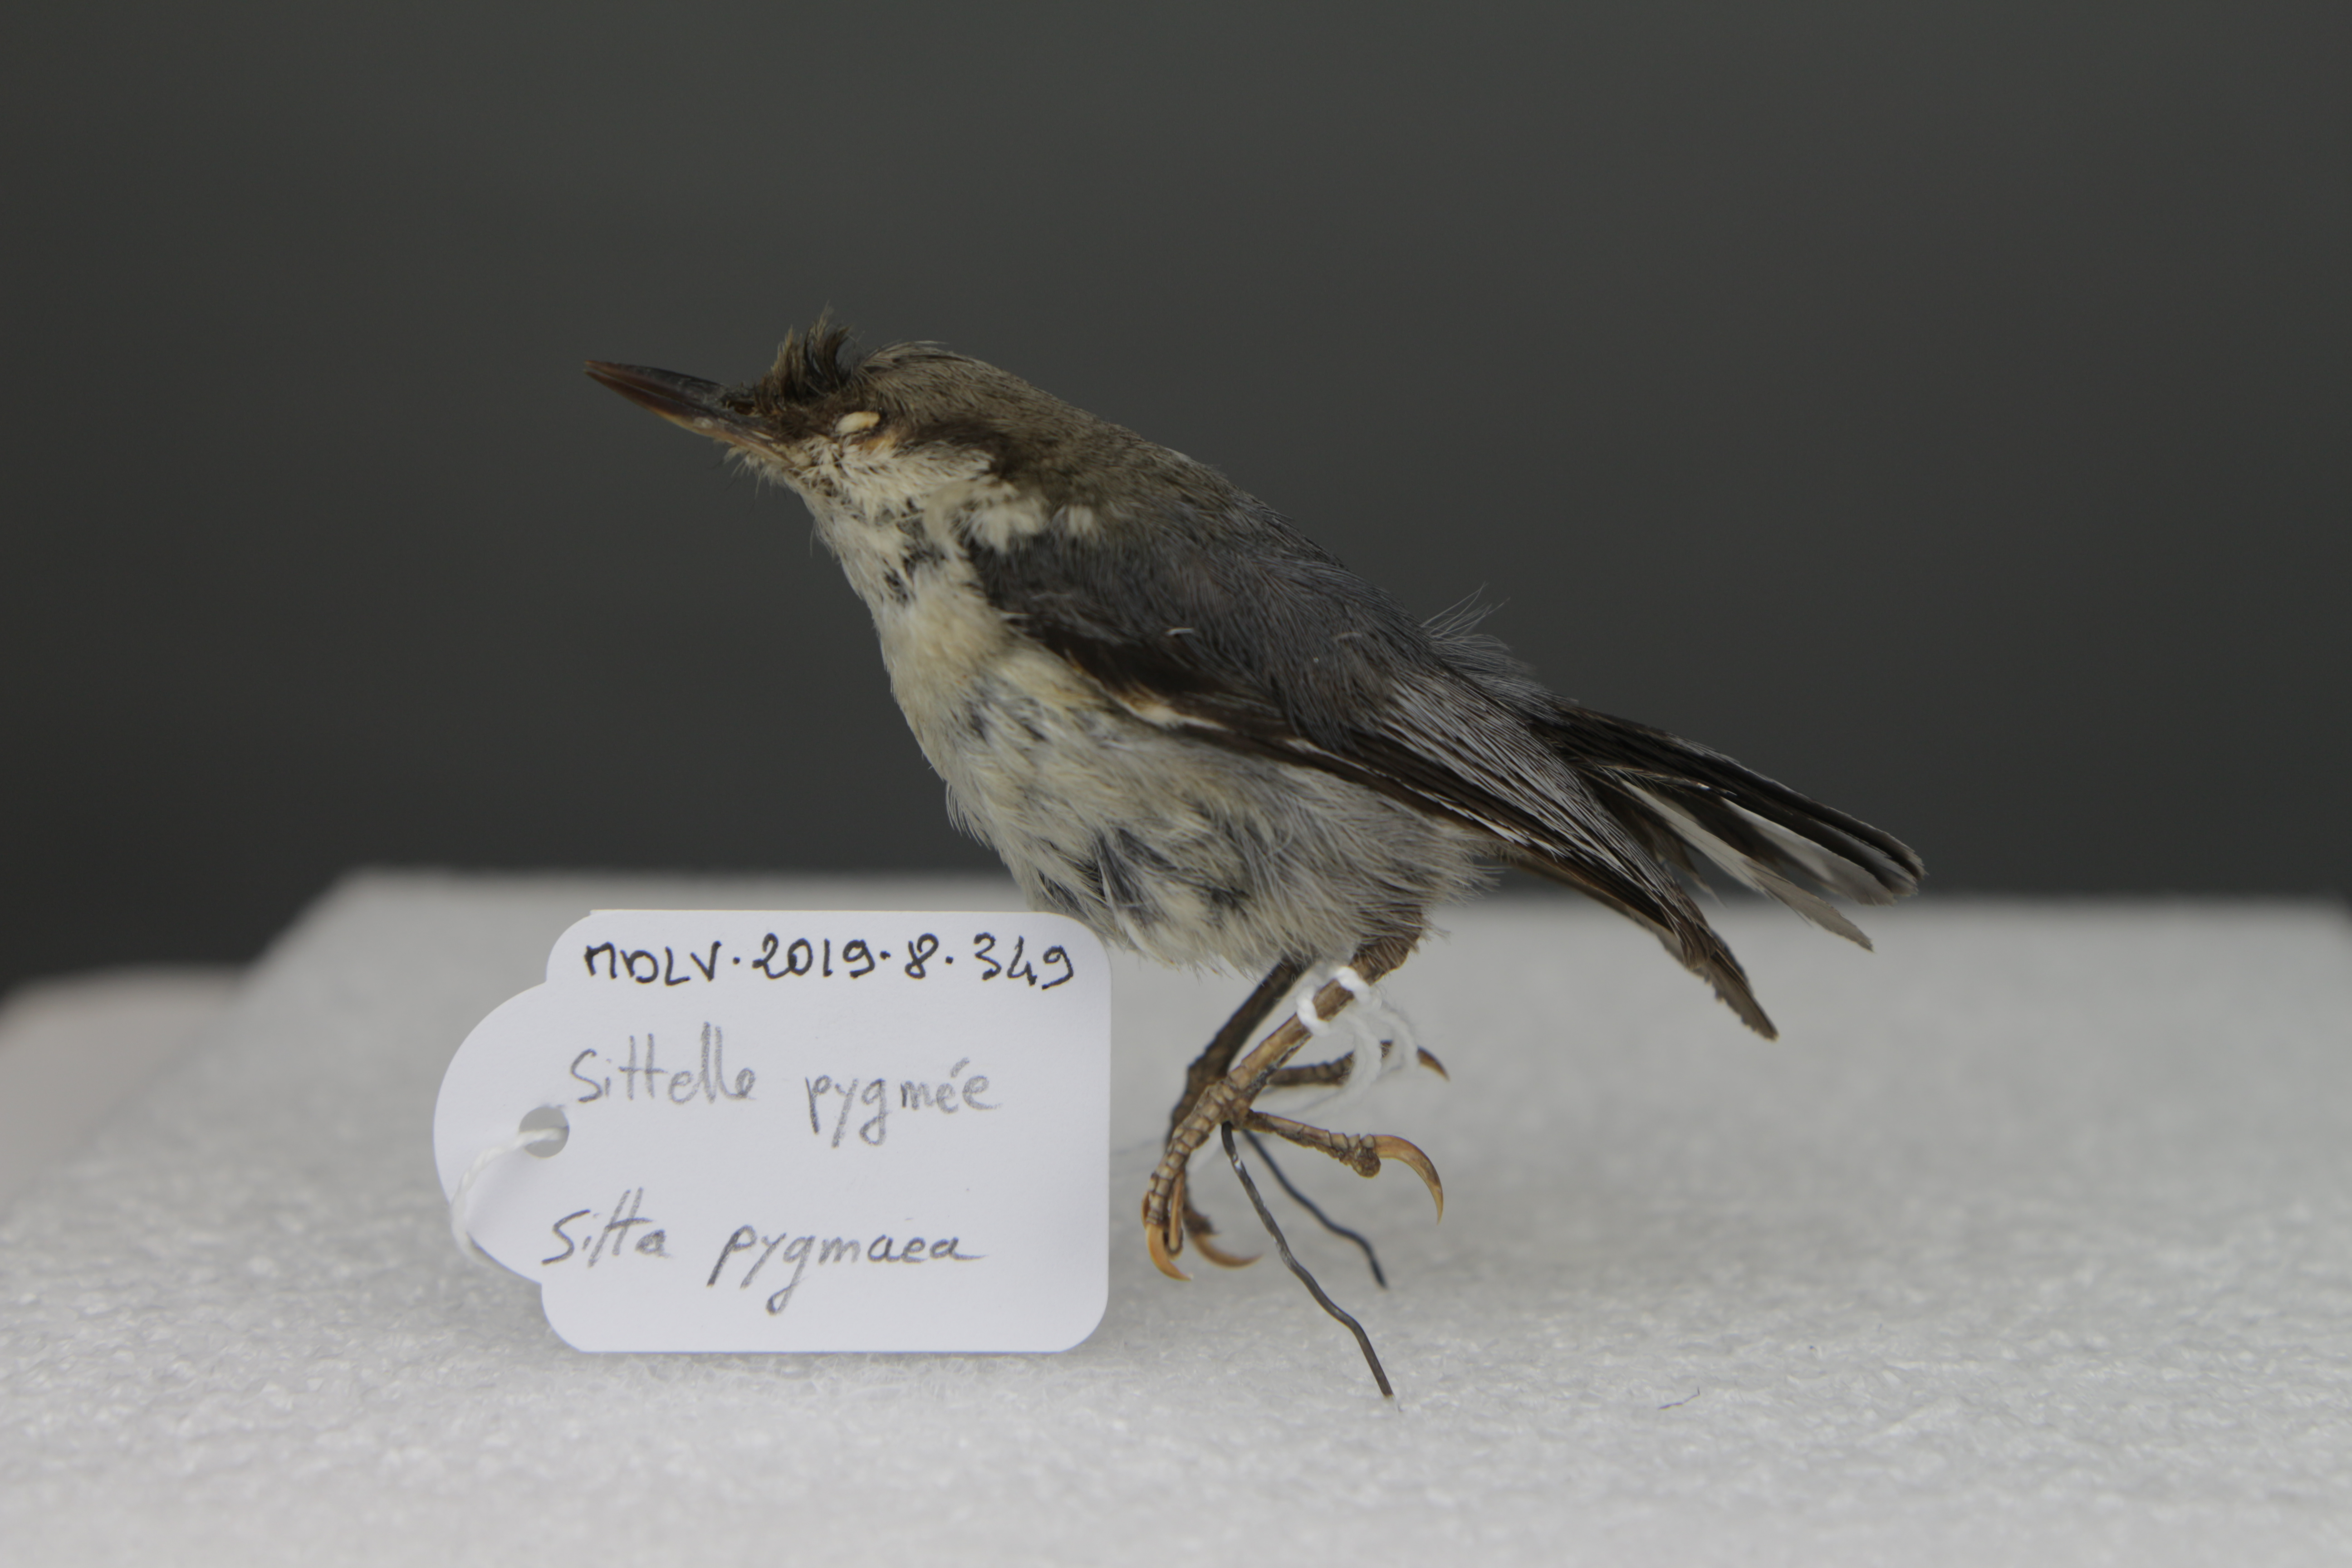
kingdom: Animalia
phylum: Chordata
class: Aves
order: Passeriformes
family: Sittidae
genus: Sitta
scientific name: Sitta pygmaea
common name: Pygmy nuthatch
